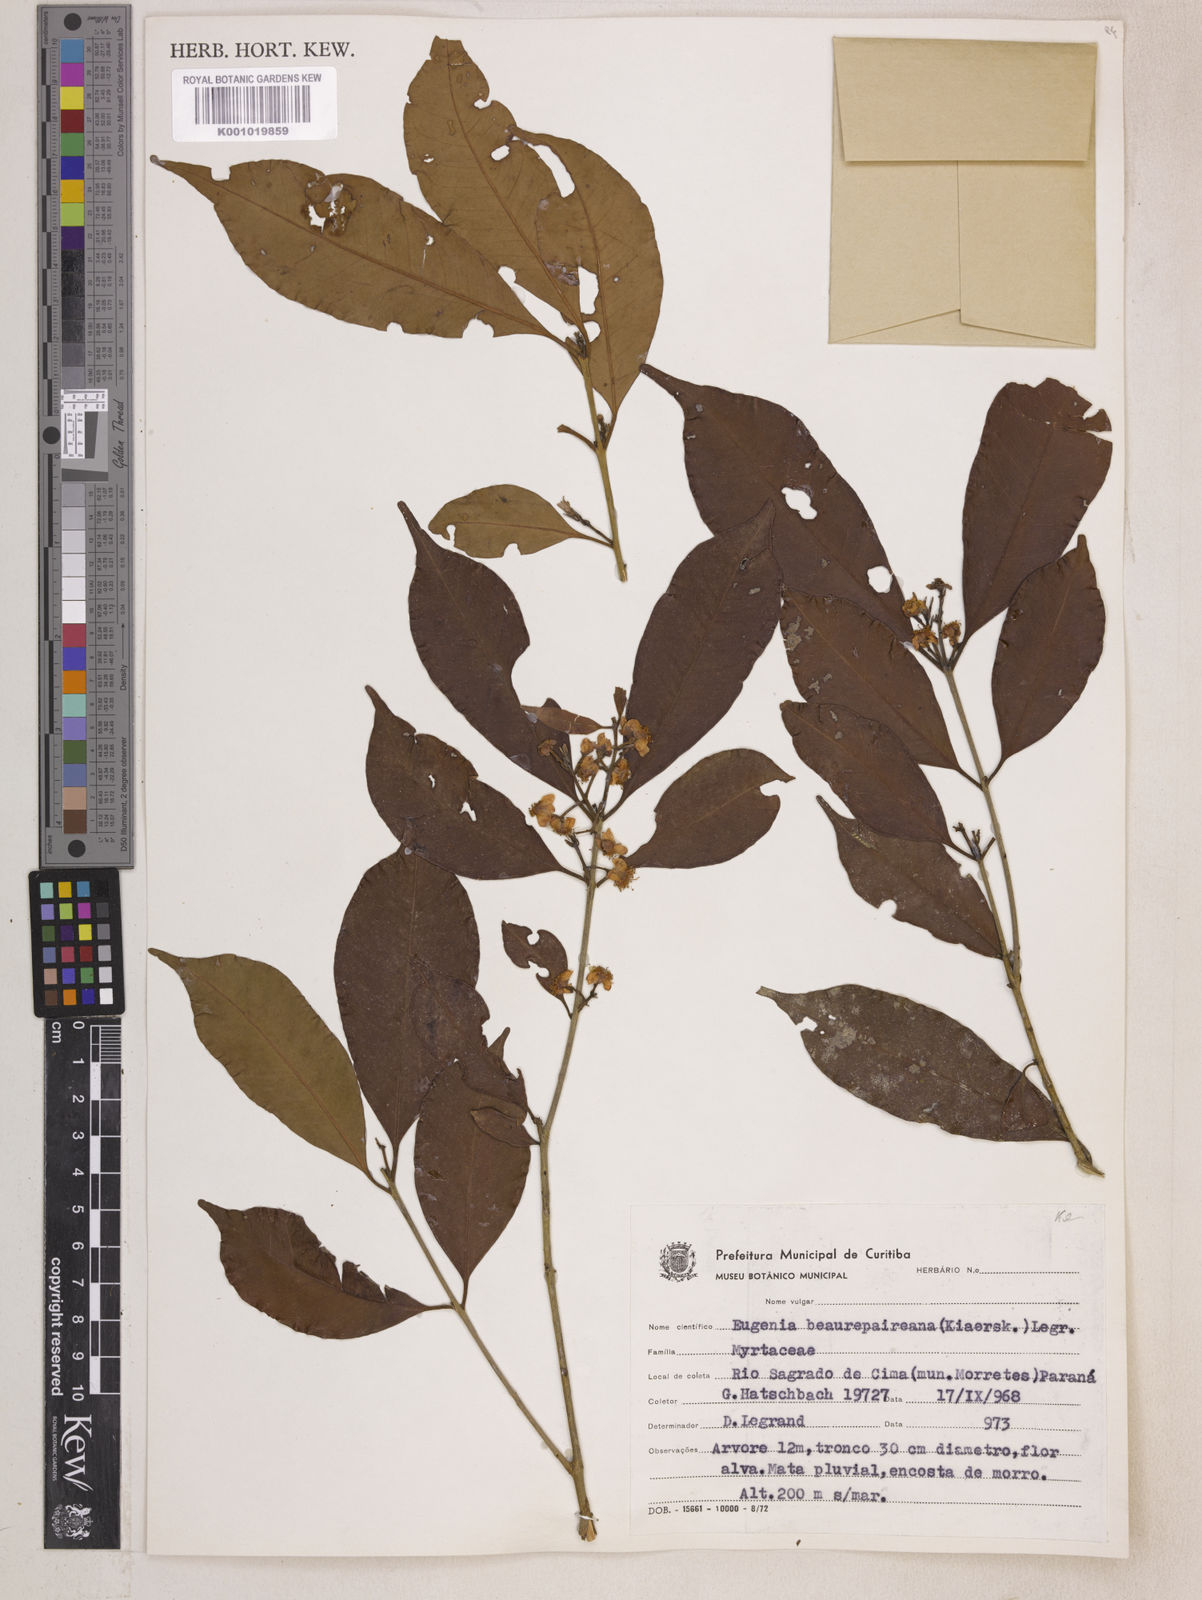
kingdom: Plantae
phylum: Tracheophyta
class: Magnoliopsida
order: Myrtales
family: Myrtaceae
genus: Eugenia
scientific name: Eugenia ternatifolia
